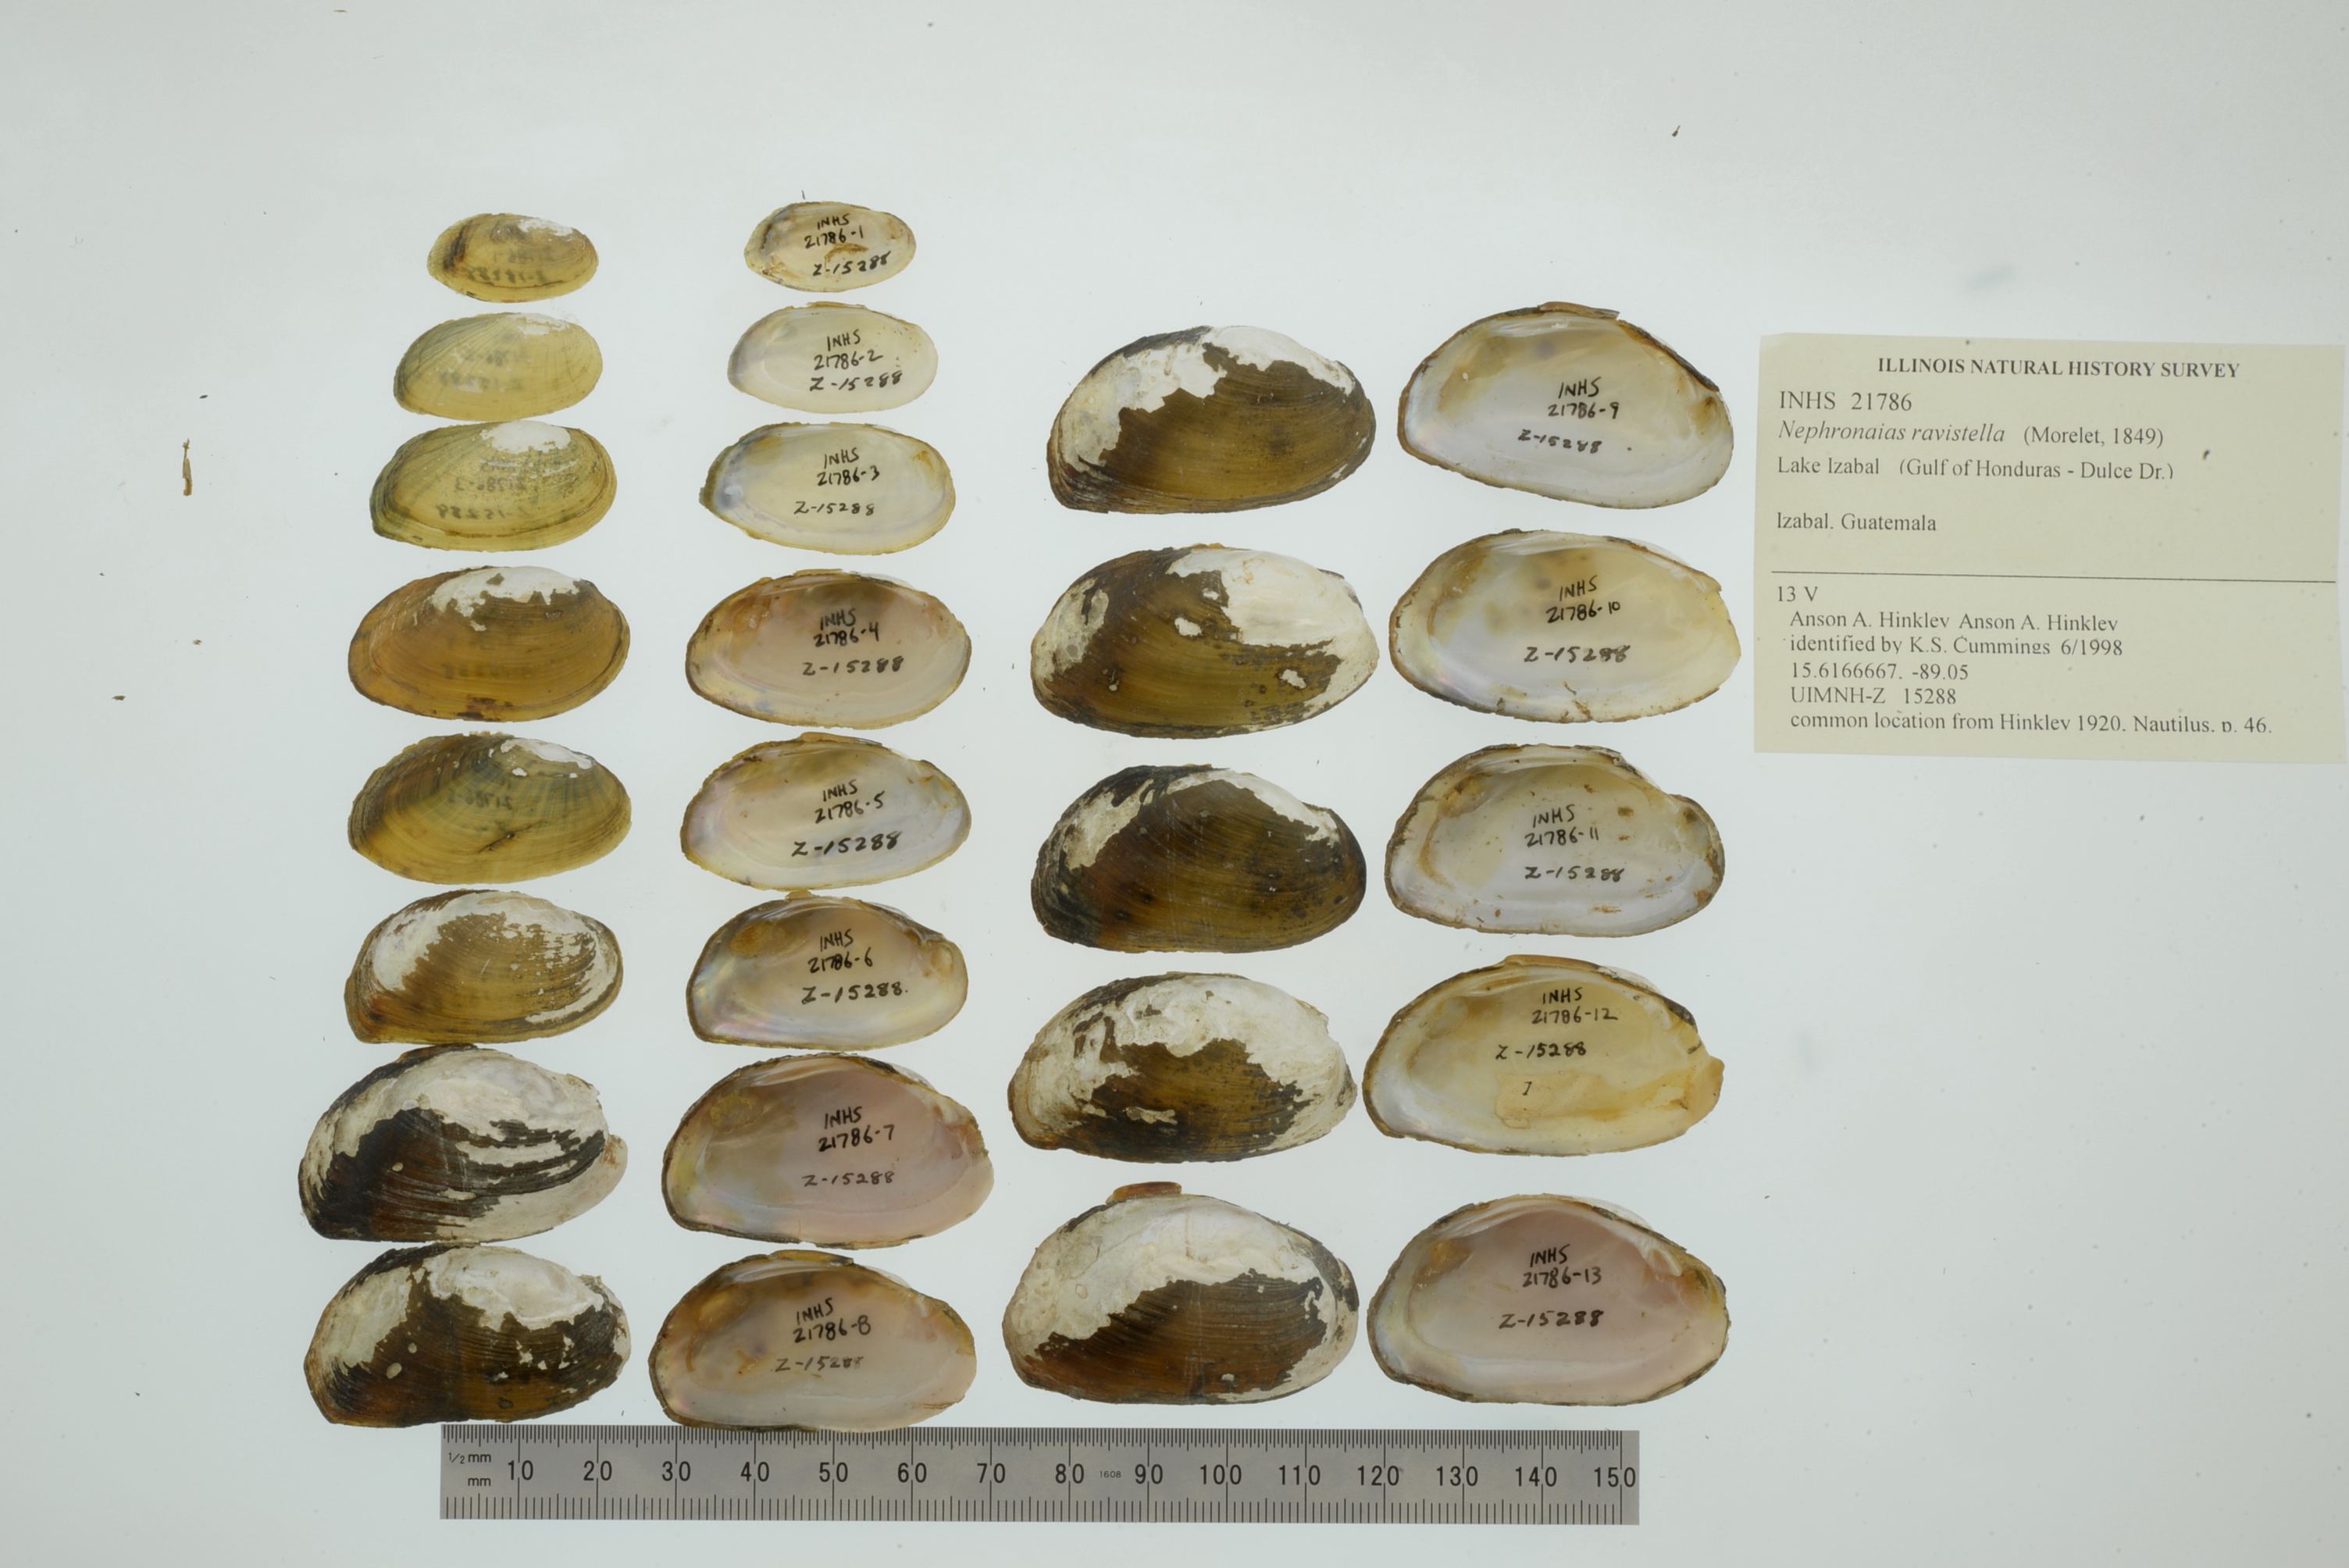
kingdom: Animalia
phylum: Mollusca
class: Bivalvia
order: Unionida
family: Unionidae
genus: Nephronaias
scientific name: Nephronaias ravistella
